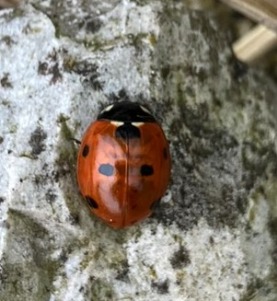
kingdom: Animalia
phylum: Arthropoda
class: Insecta
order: Coleoptera
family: Coccinellidae
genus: Coccinella
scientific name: Coccinella septempunctata
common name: Syvplettet mariehøne
